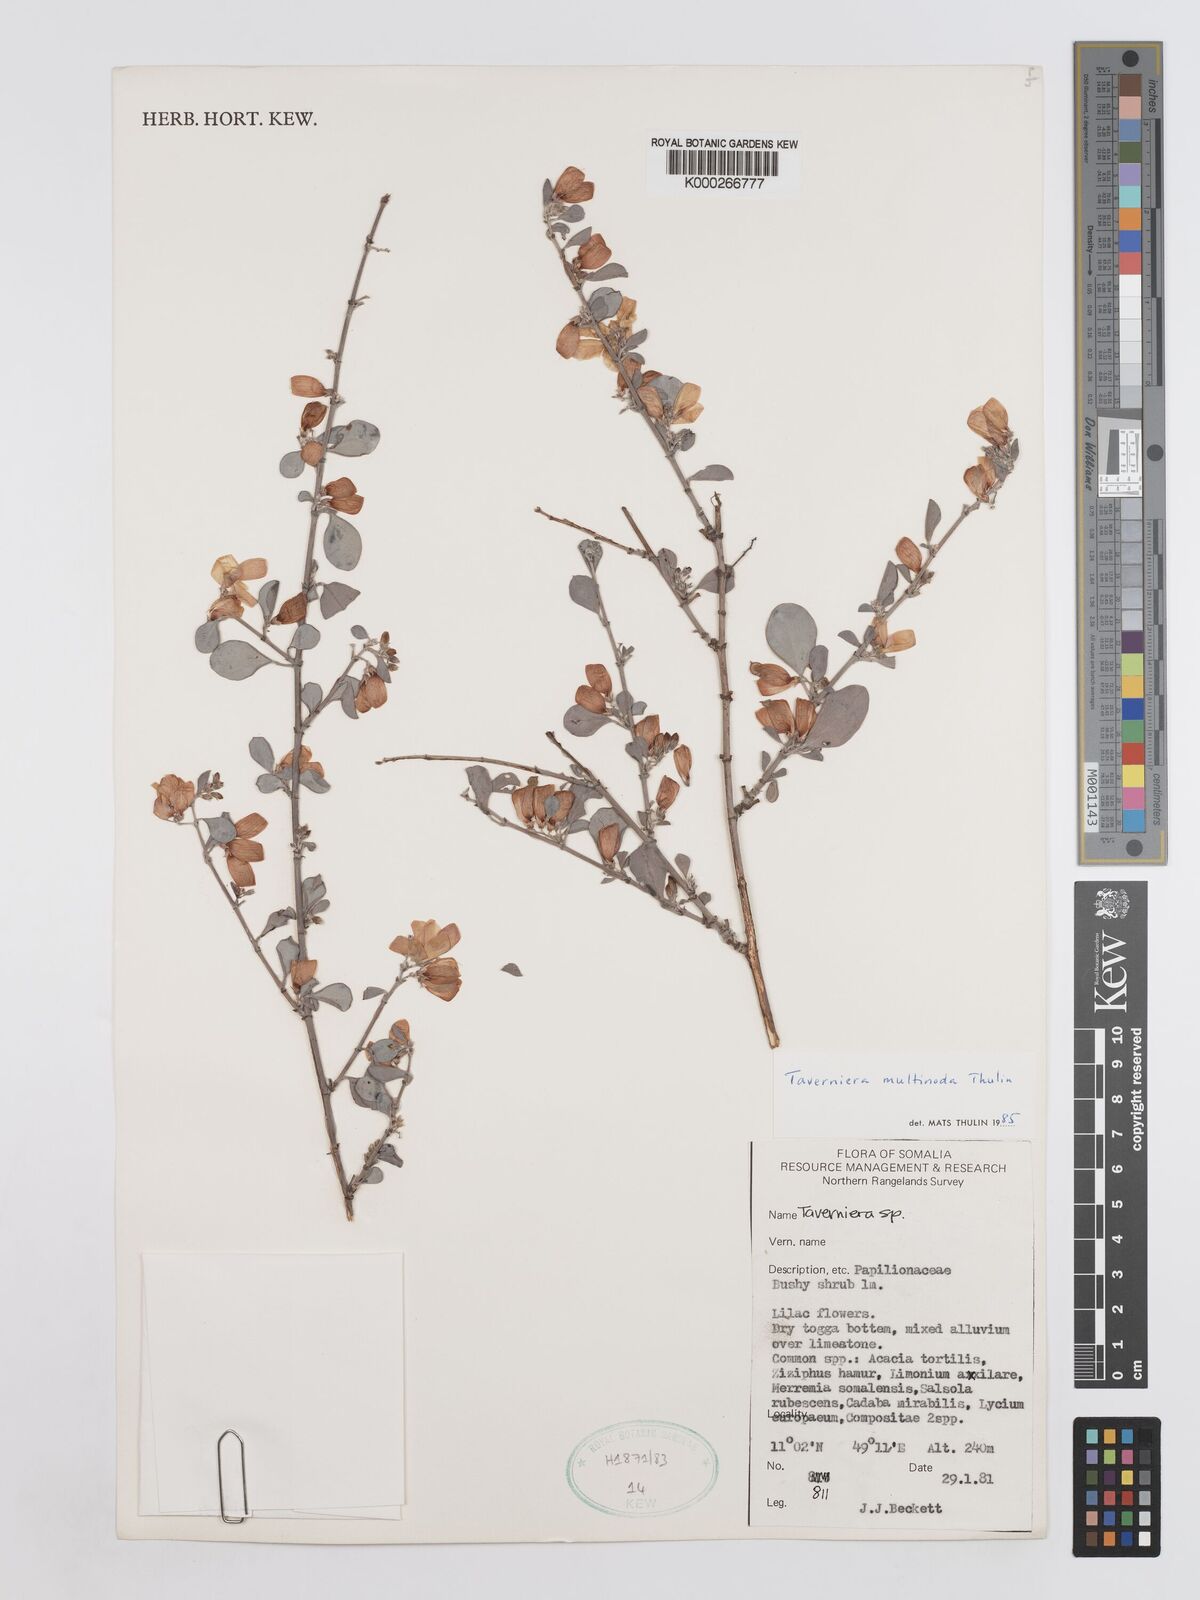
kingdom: Plantae
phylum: Tracheophyta
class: Magnoliopsida
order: Fabales
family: Fabaceae
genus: Taverniera
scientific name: Taverniera multinoda
